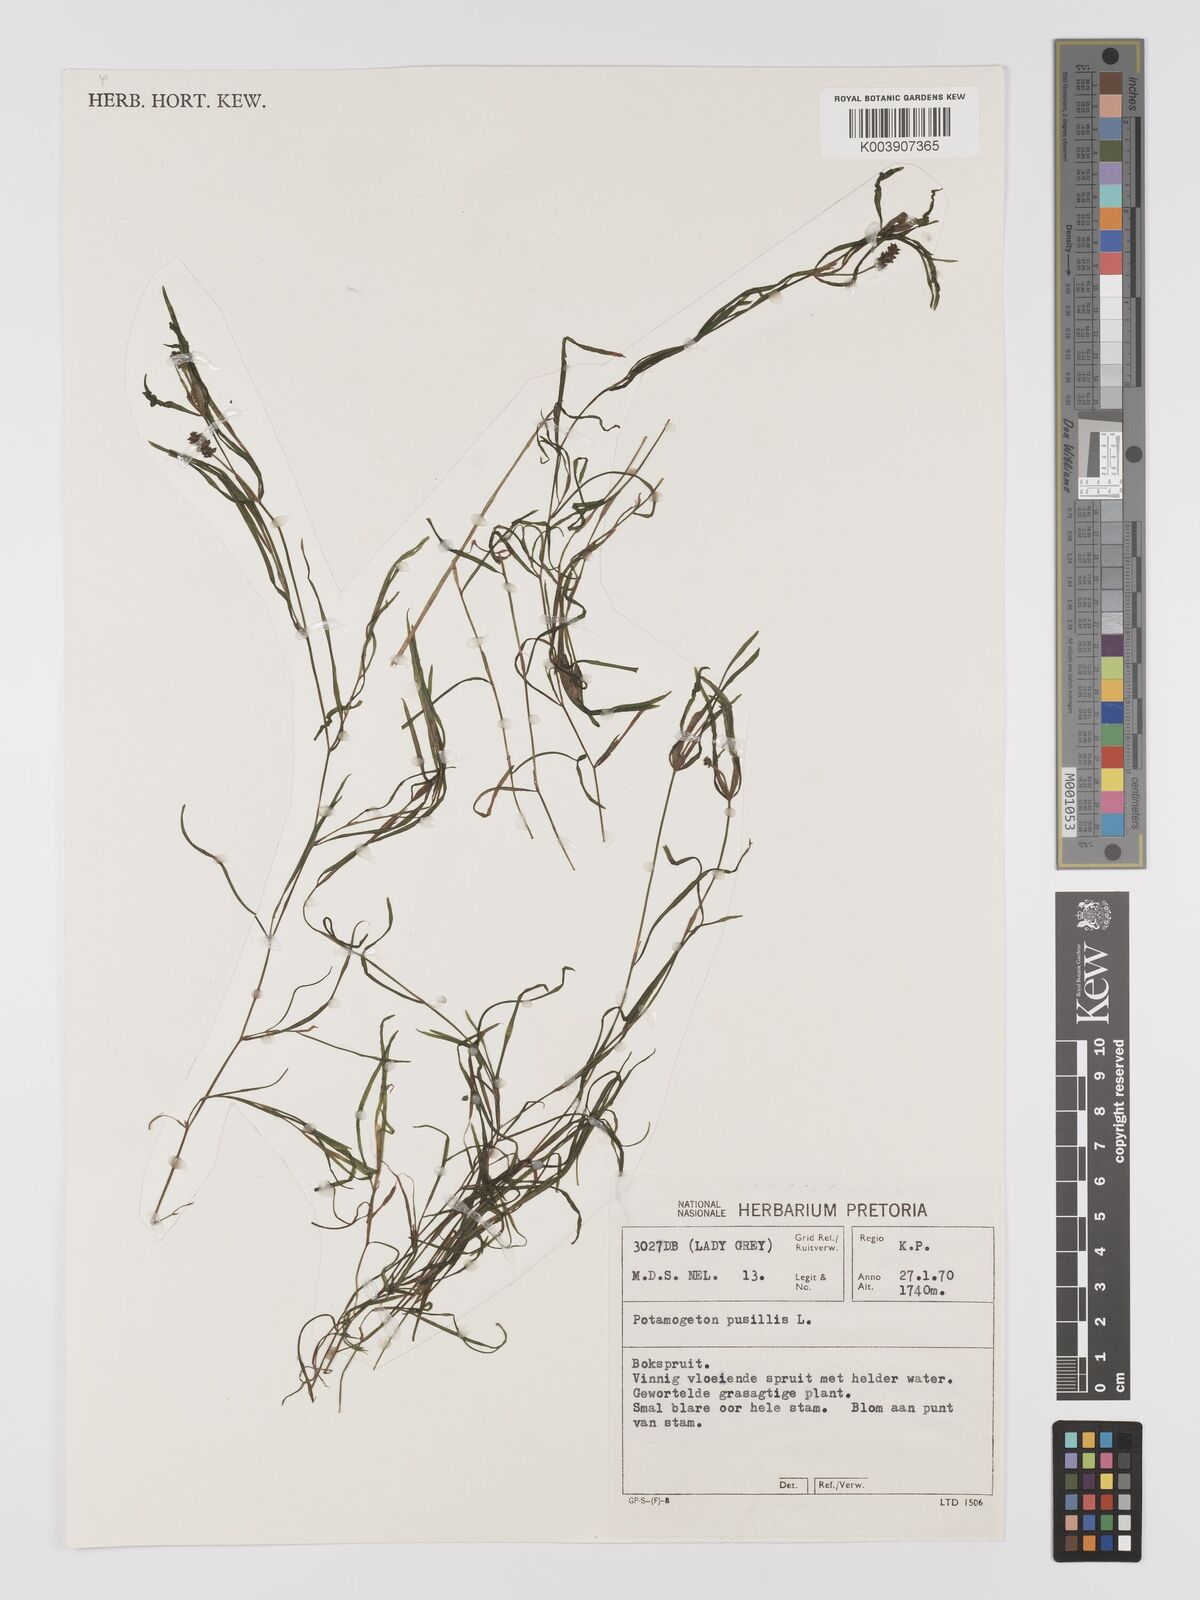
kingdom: Plantae
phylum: Tracheophyta
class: Liliopsida
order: Alismatales
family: Potamogetonaceae
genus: Potamogeton
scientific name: Potamogeton pusillus
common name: Lesser pondweed
